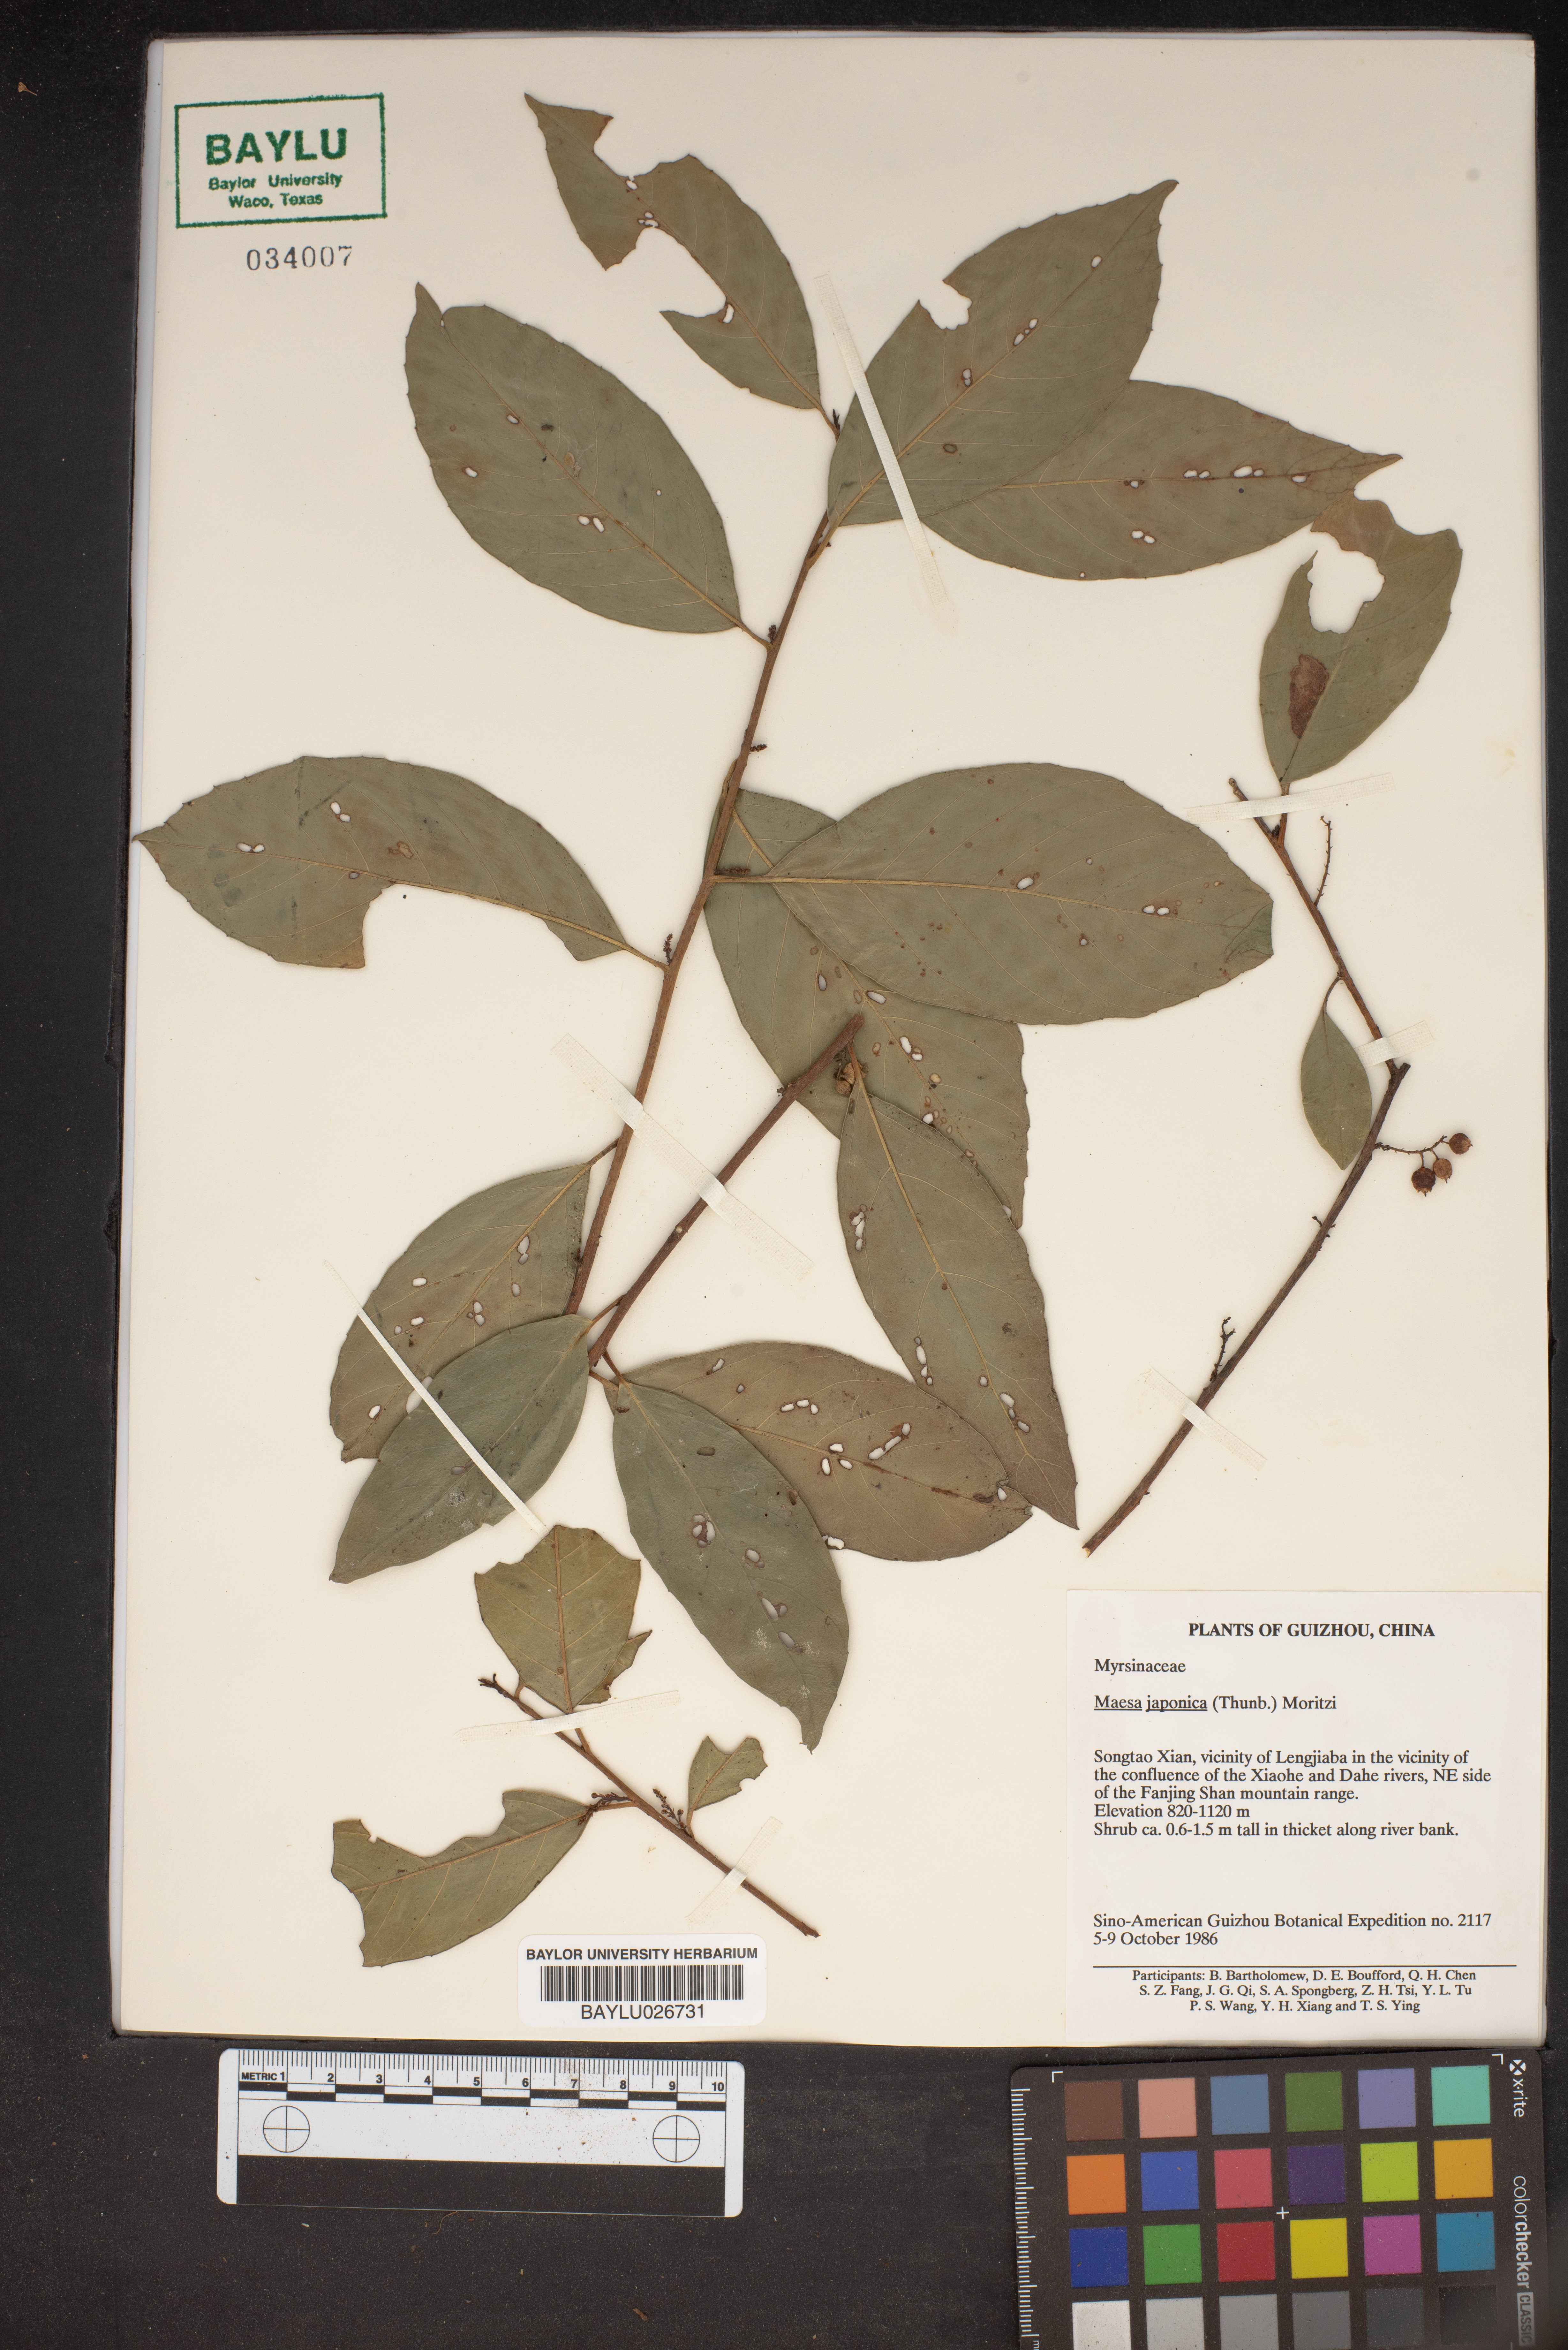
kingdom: Plantae
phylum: Tracheophyta
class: Magnoliopsida
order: Ericales
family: Primulaceae
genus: Maesa
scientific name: Maesa japonica
